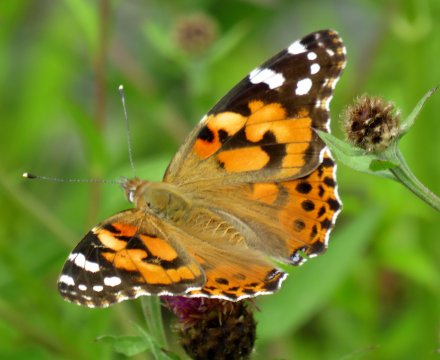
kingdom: Animalia
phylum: Arthropoda
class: Insecta
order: Lepidoptera
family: Nymphalidae
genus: Vanessa
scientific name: Vanessa cardui
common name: Painted Lady
